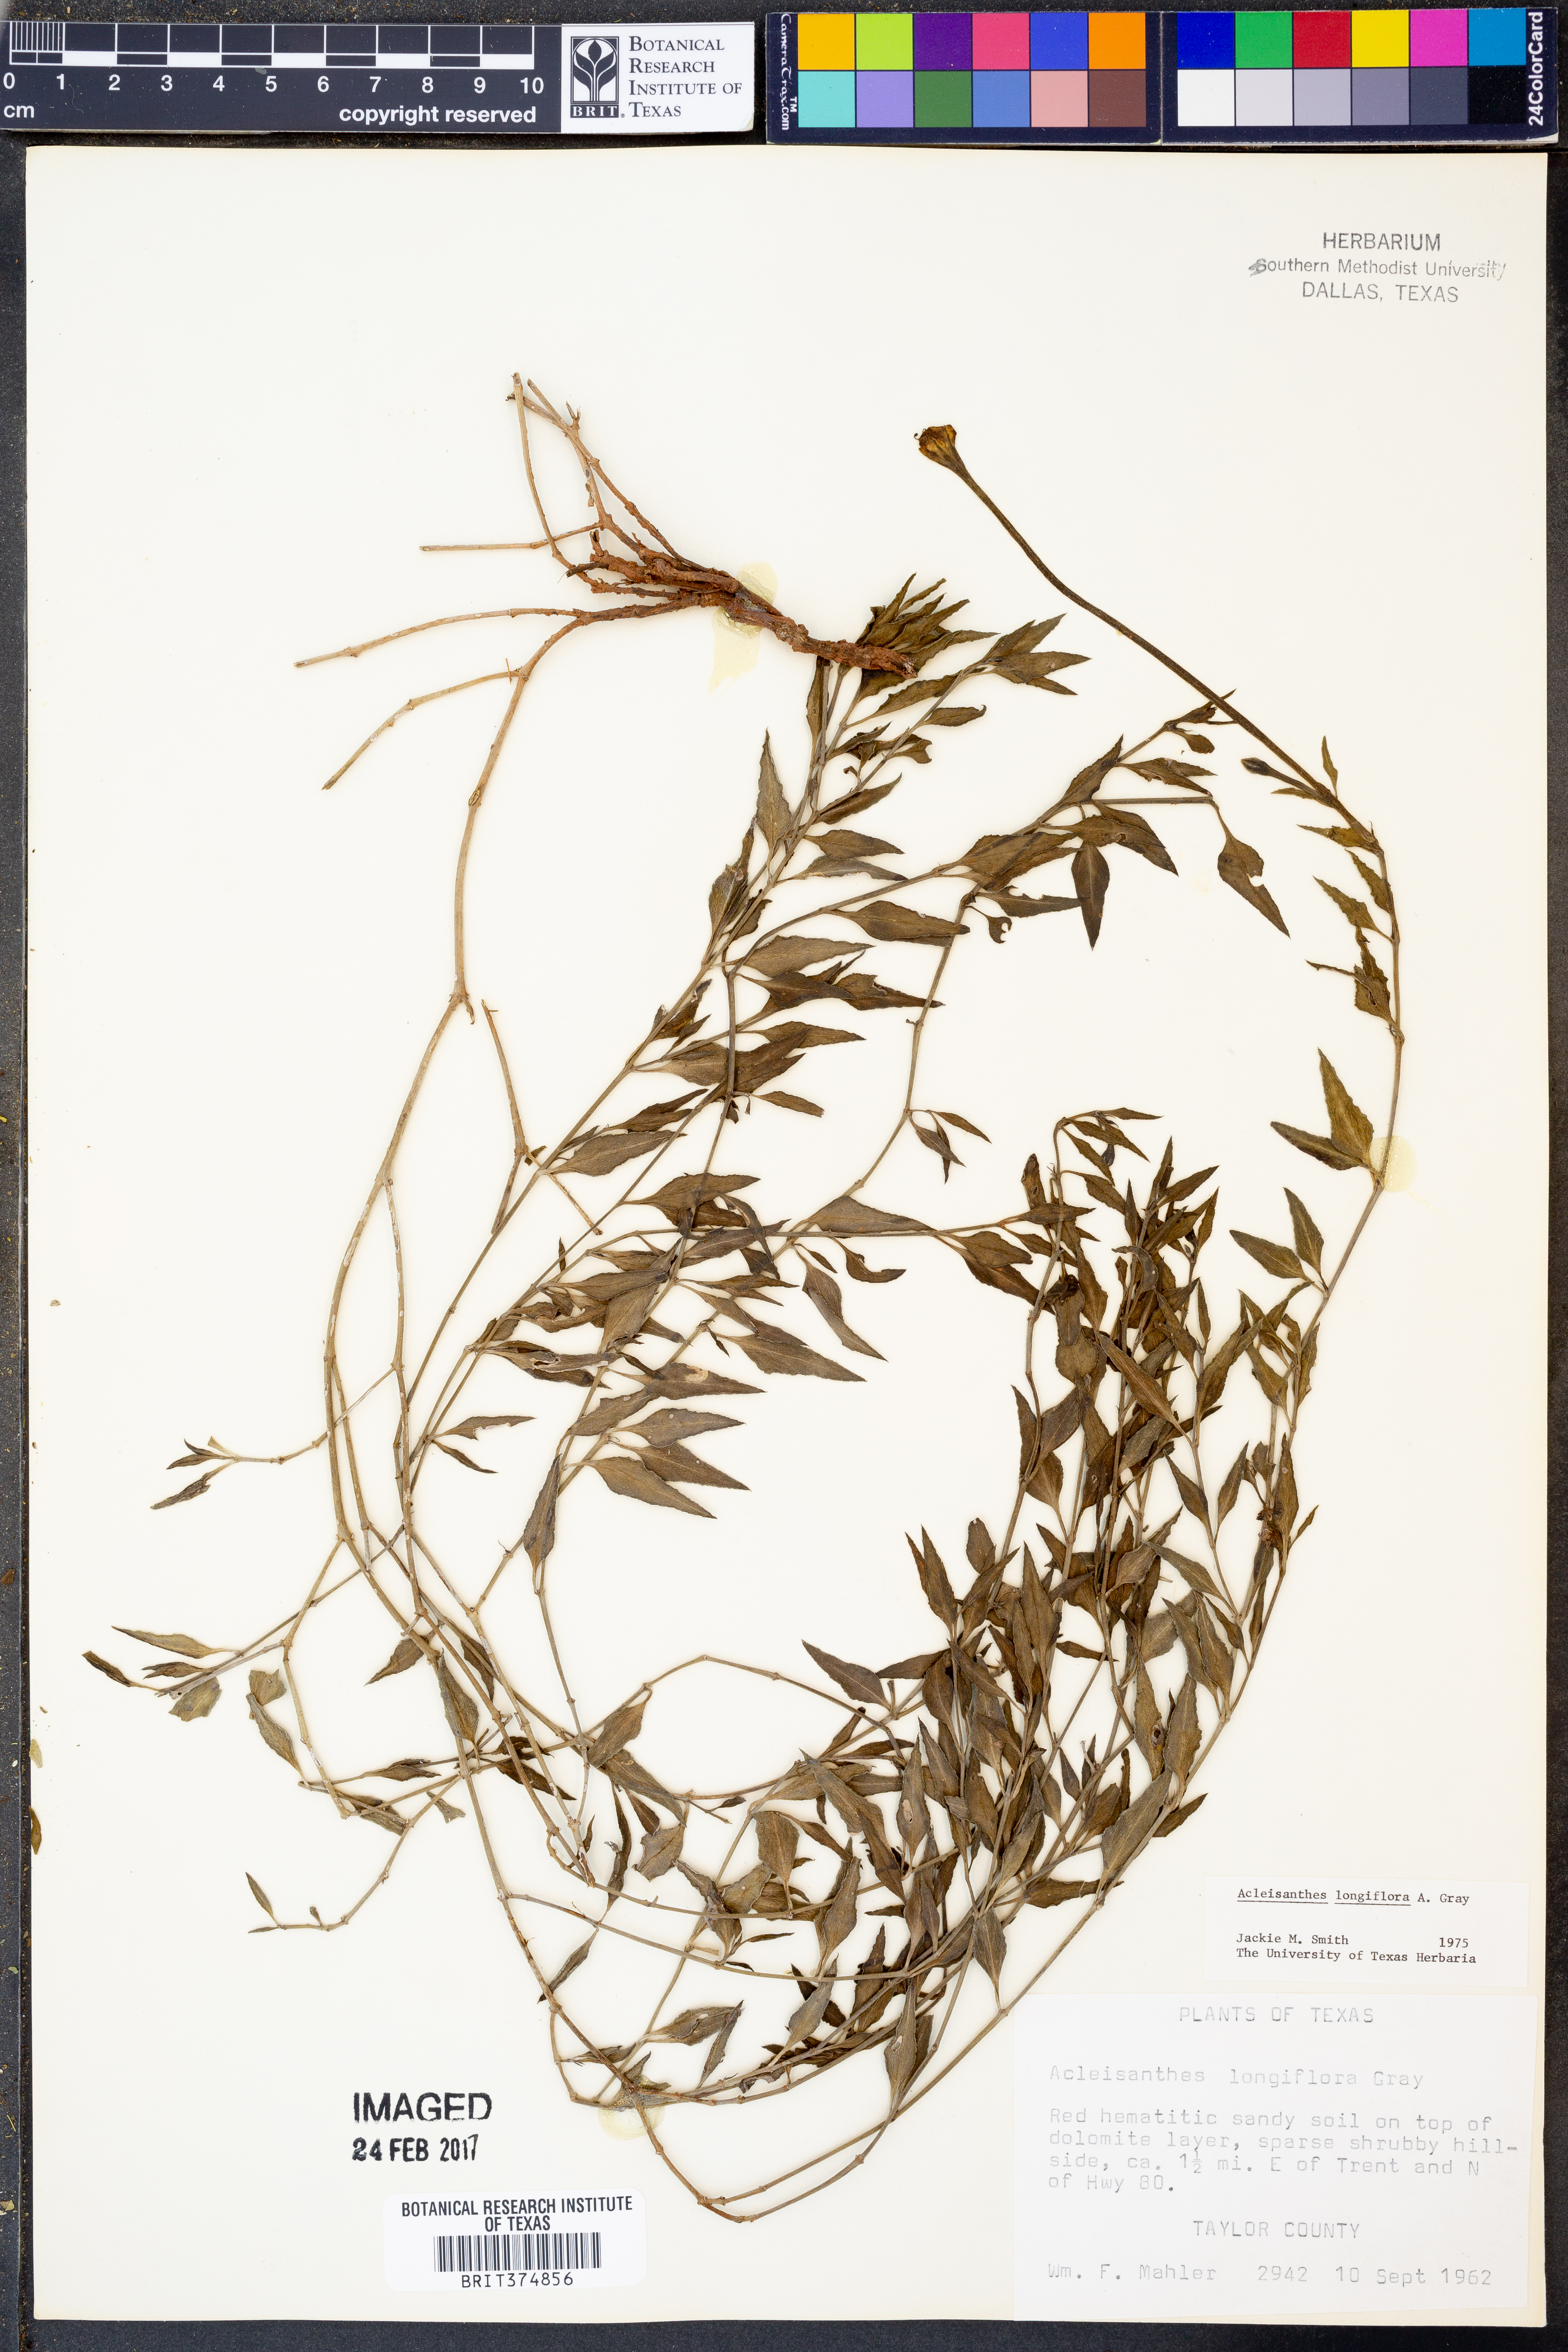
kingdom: Plantae
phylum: Tracheophyta
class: Magnoliopsida
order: Caryophyllales
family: Nyctaginaceae
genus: Acleisanthes
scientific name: Acleisanthes longiflora
